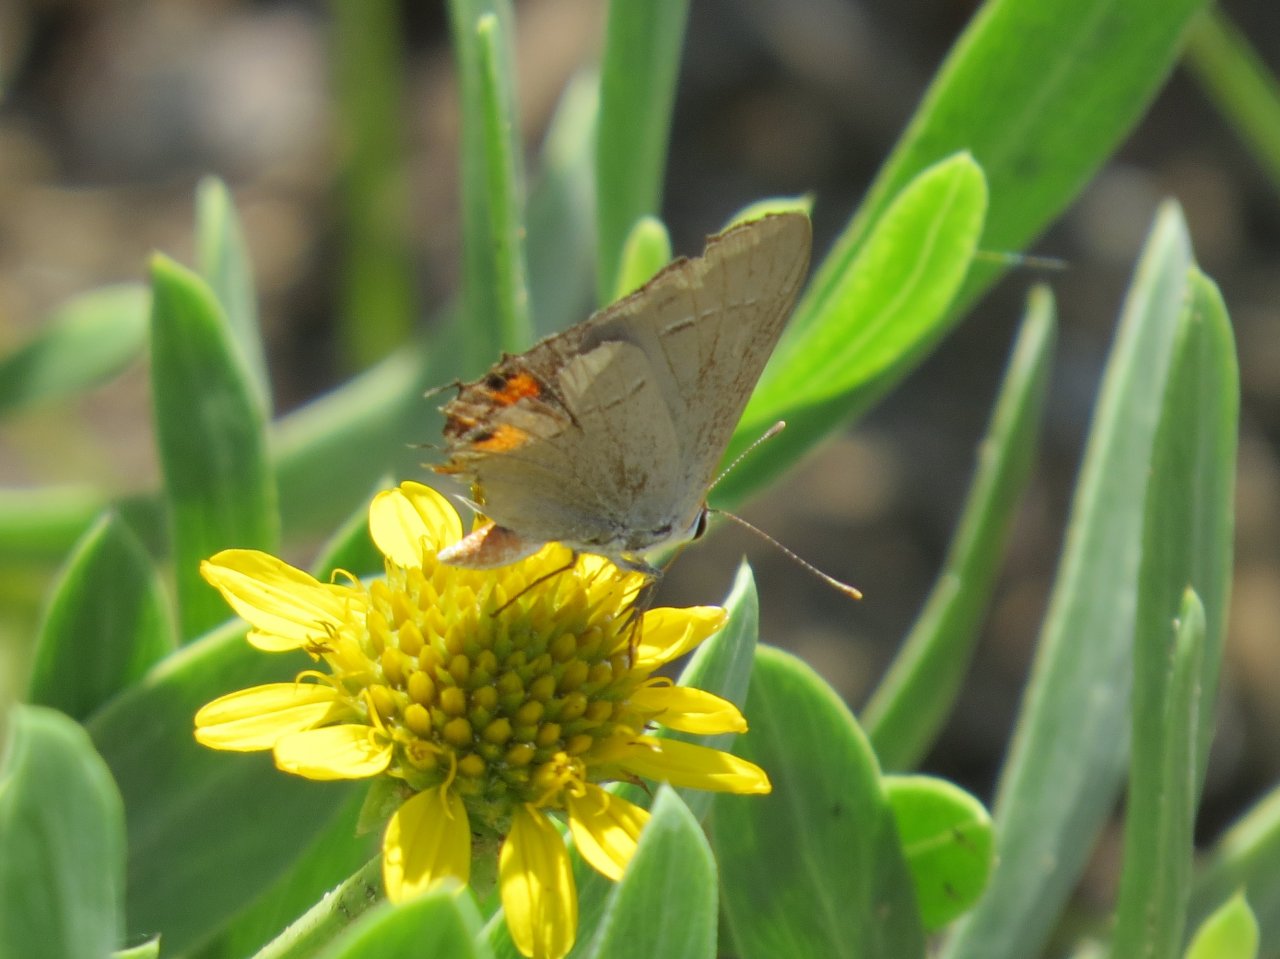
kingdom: Animalia
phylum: Arthropoda
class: Insecta
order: Lepidoptera
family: Lycaenidae
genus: Strymon
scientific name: Strymon melinus
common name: Gray Hairstreak
